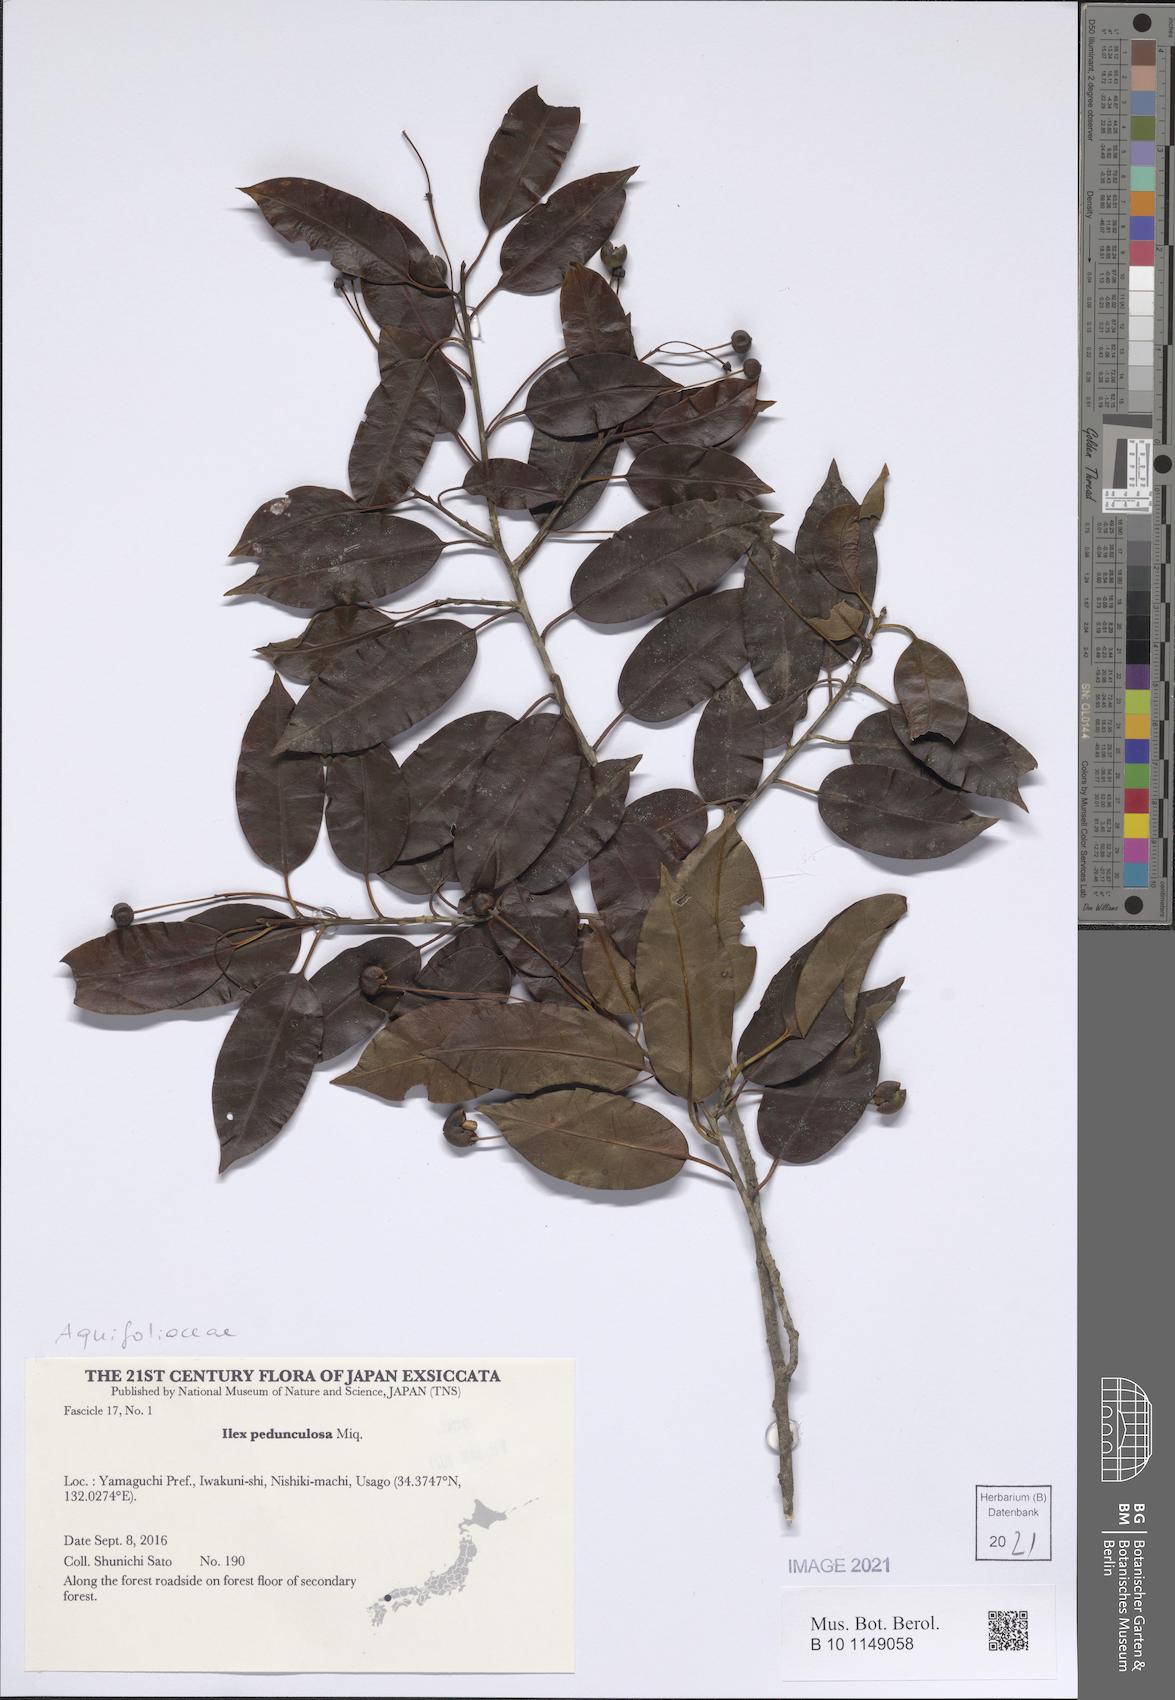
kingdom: Plantae
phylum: Tracheophyta
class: Magnoliopsida
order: Aquifoliales
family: Aquifoliaceae
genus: Ilex
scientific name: Ilex pedunculosa
